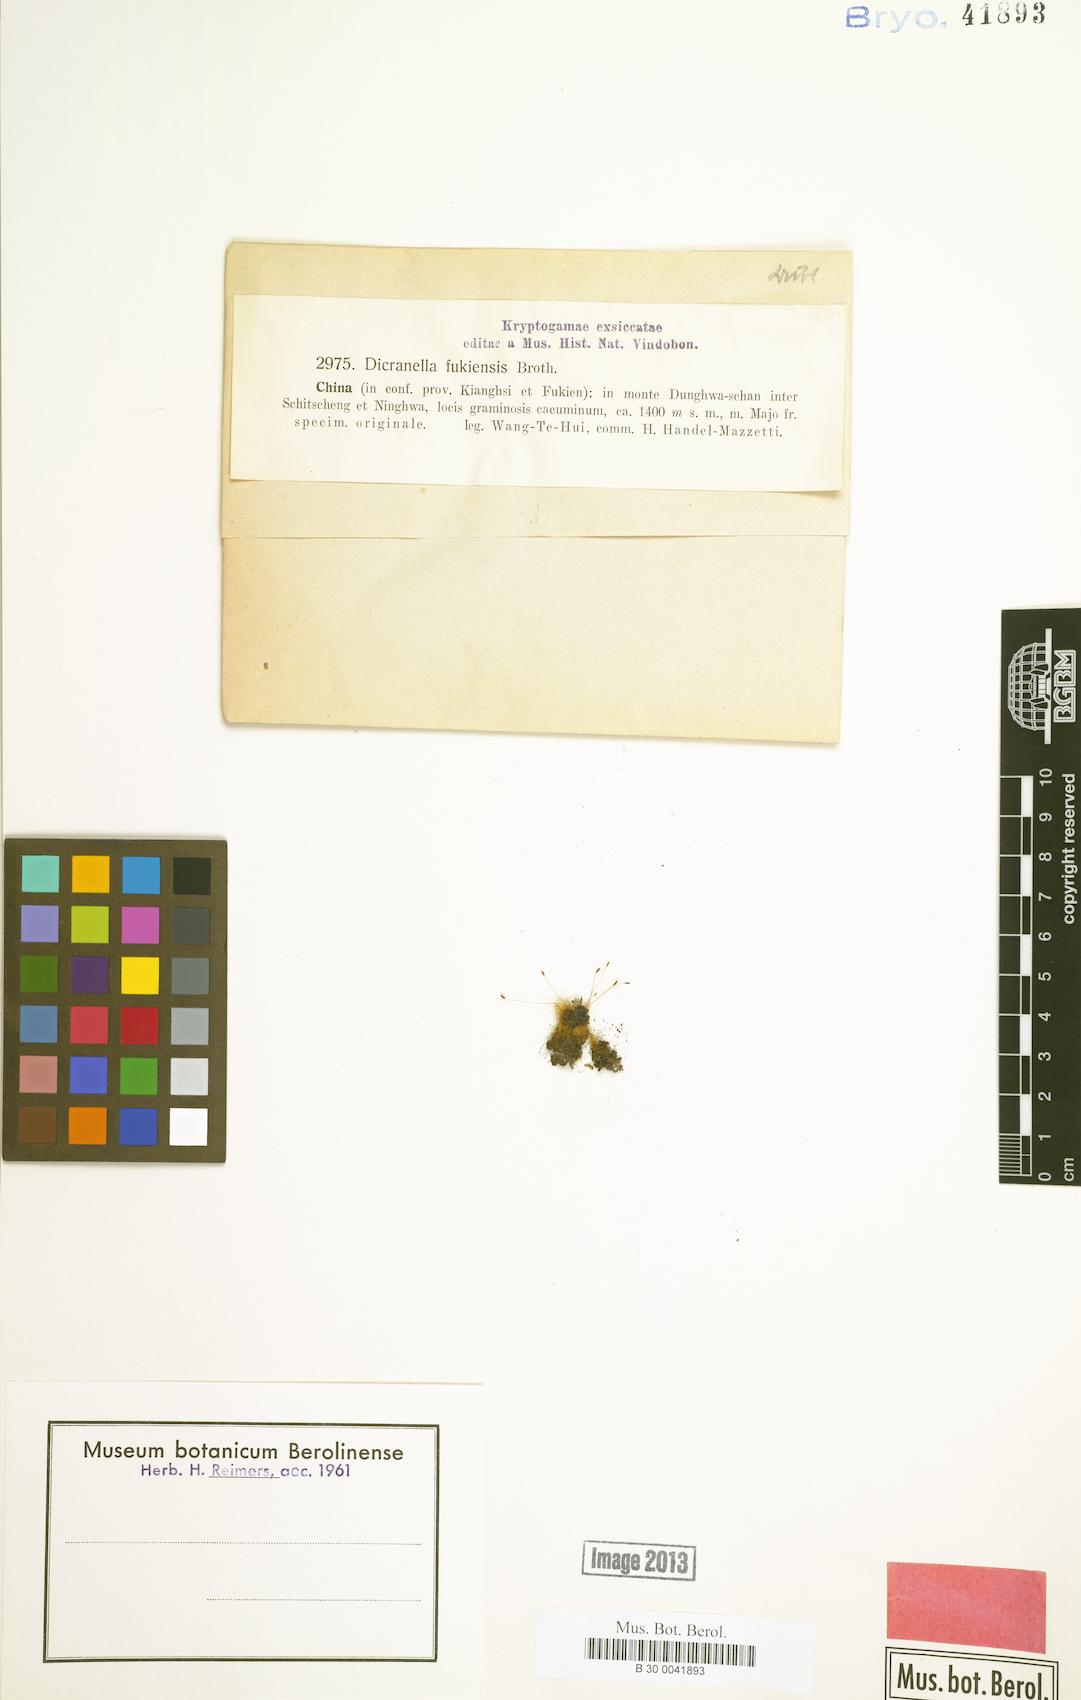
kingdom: Plantae
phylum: Bryophyta
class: Bryopsida
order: Dicranales
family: Dicranellaceae
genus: Dicranella
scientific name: Dicranella fukienensis
